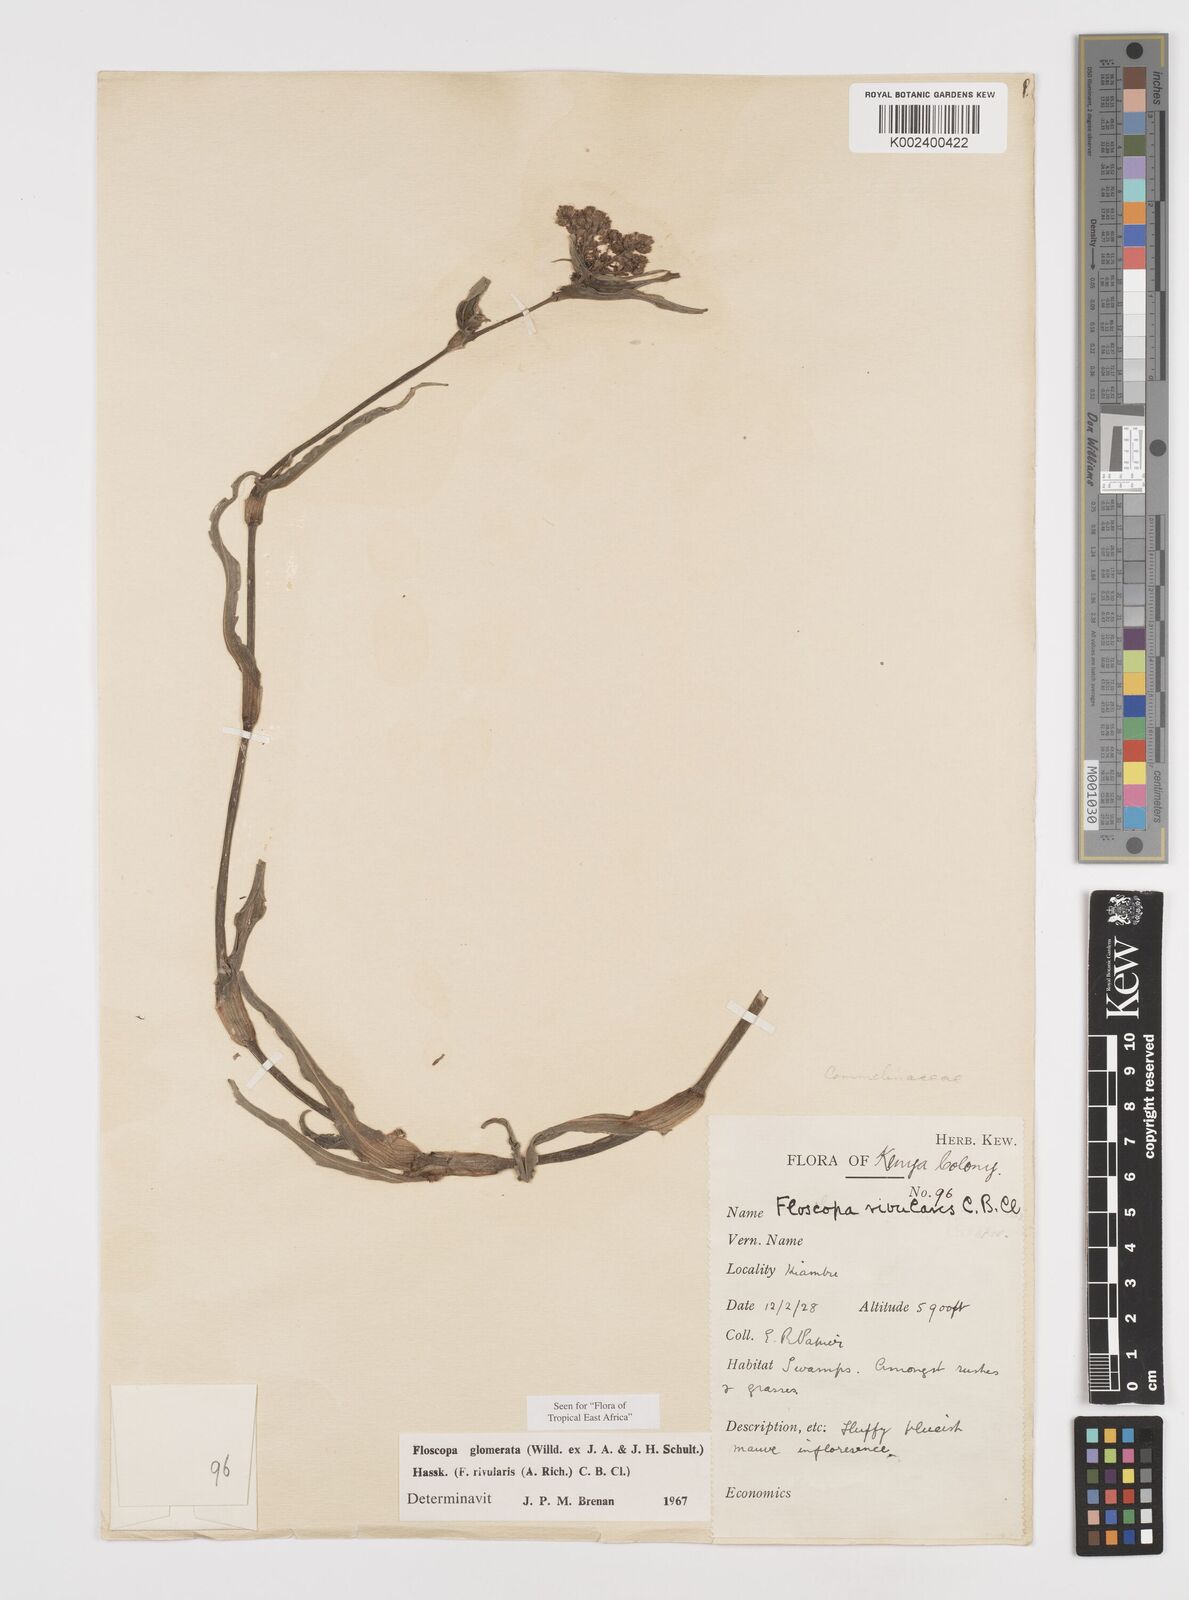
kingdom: Plantae
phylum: Tracheophyta
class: Liliopsida
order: Commelinales
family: Commelinaceae
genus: Floscopa
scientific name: Floscopa glomerata
